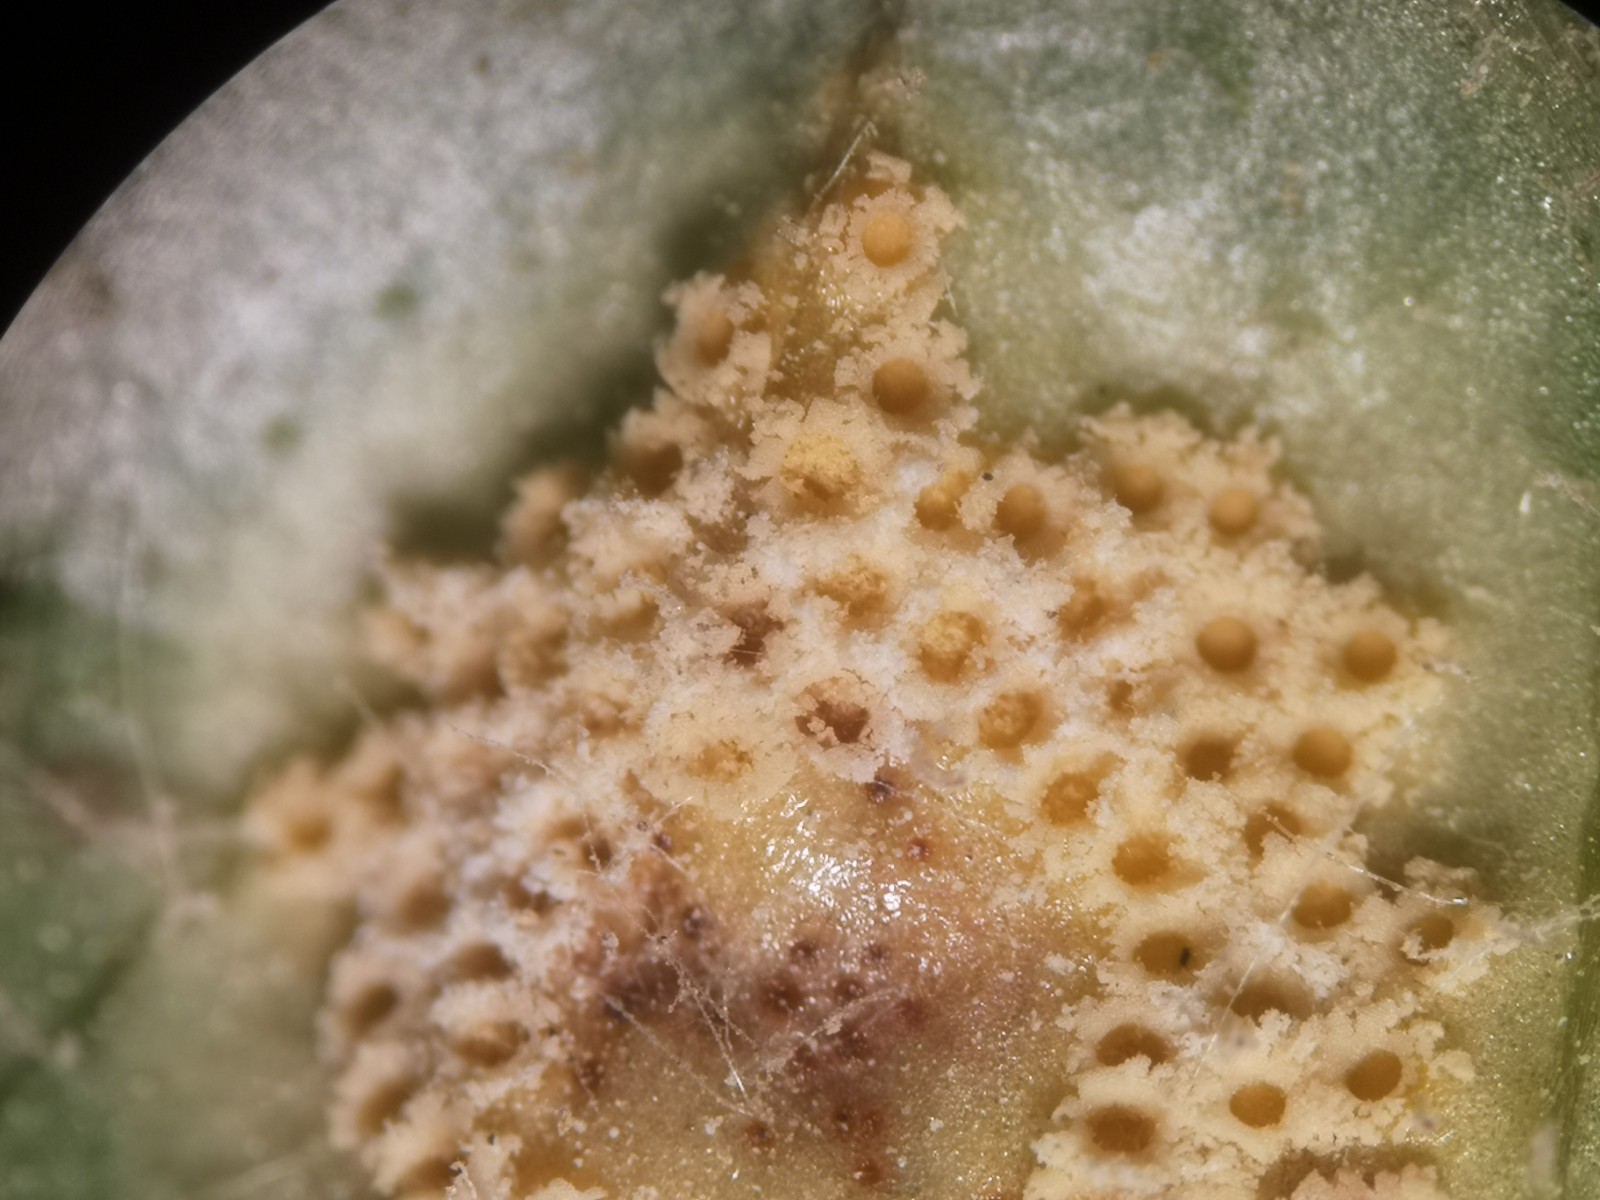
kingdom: Fungi
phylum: Basidiomycota
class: Pucciniomycetes
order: Pucciniales
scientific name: Pucciniales
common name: rustsvampeordenen
